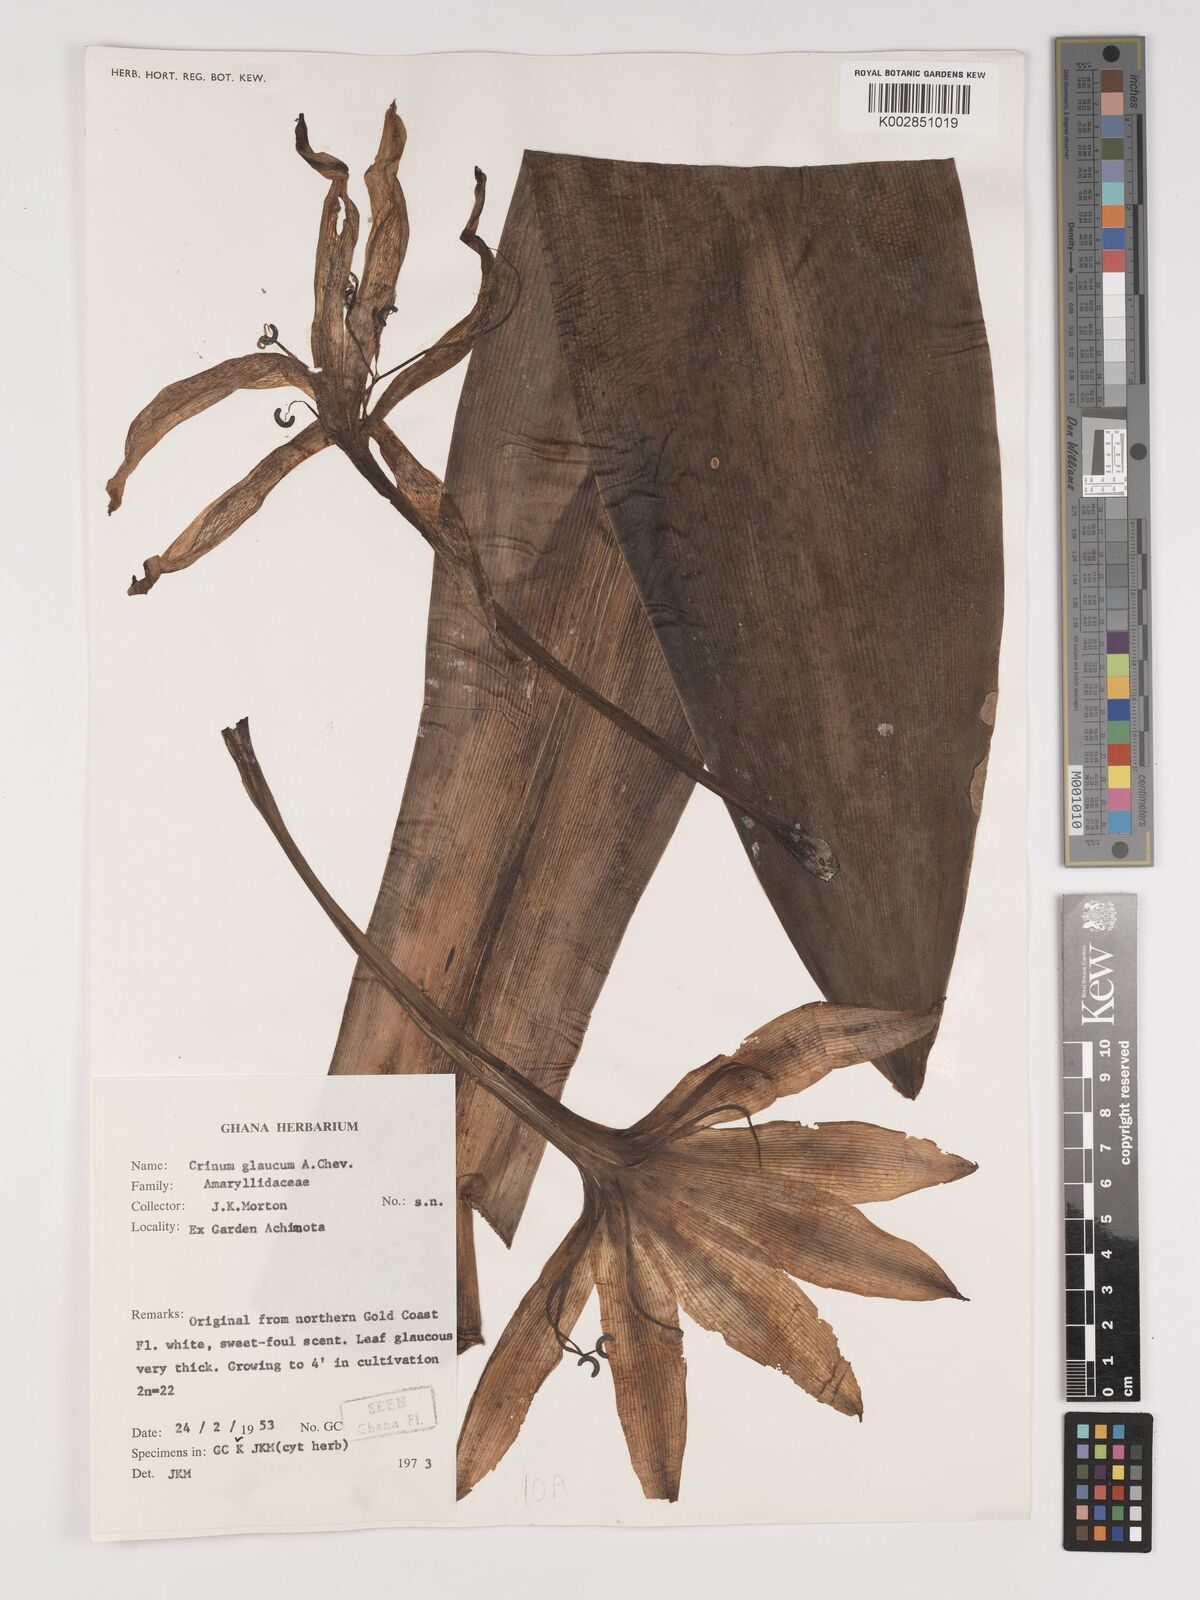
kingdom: Plantae
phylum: Tracheophyta
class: Liliopsida
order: Asparagales
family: Amaryllidaceae
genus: Crinum
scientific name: Crinum glaucum
